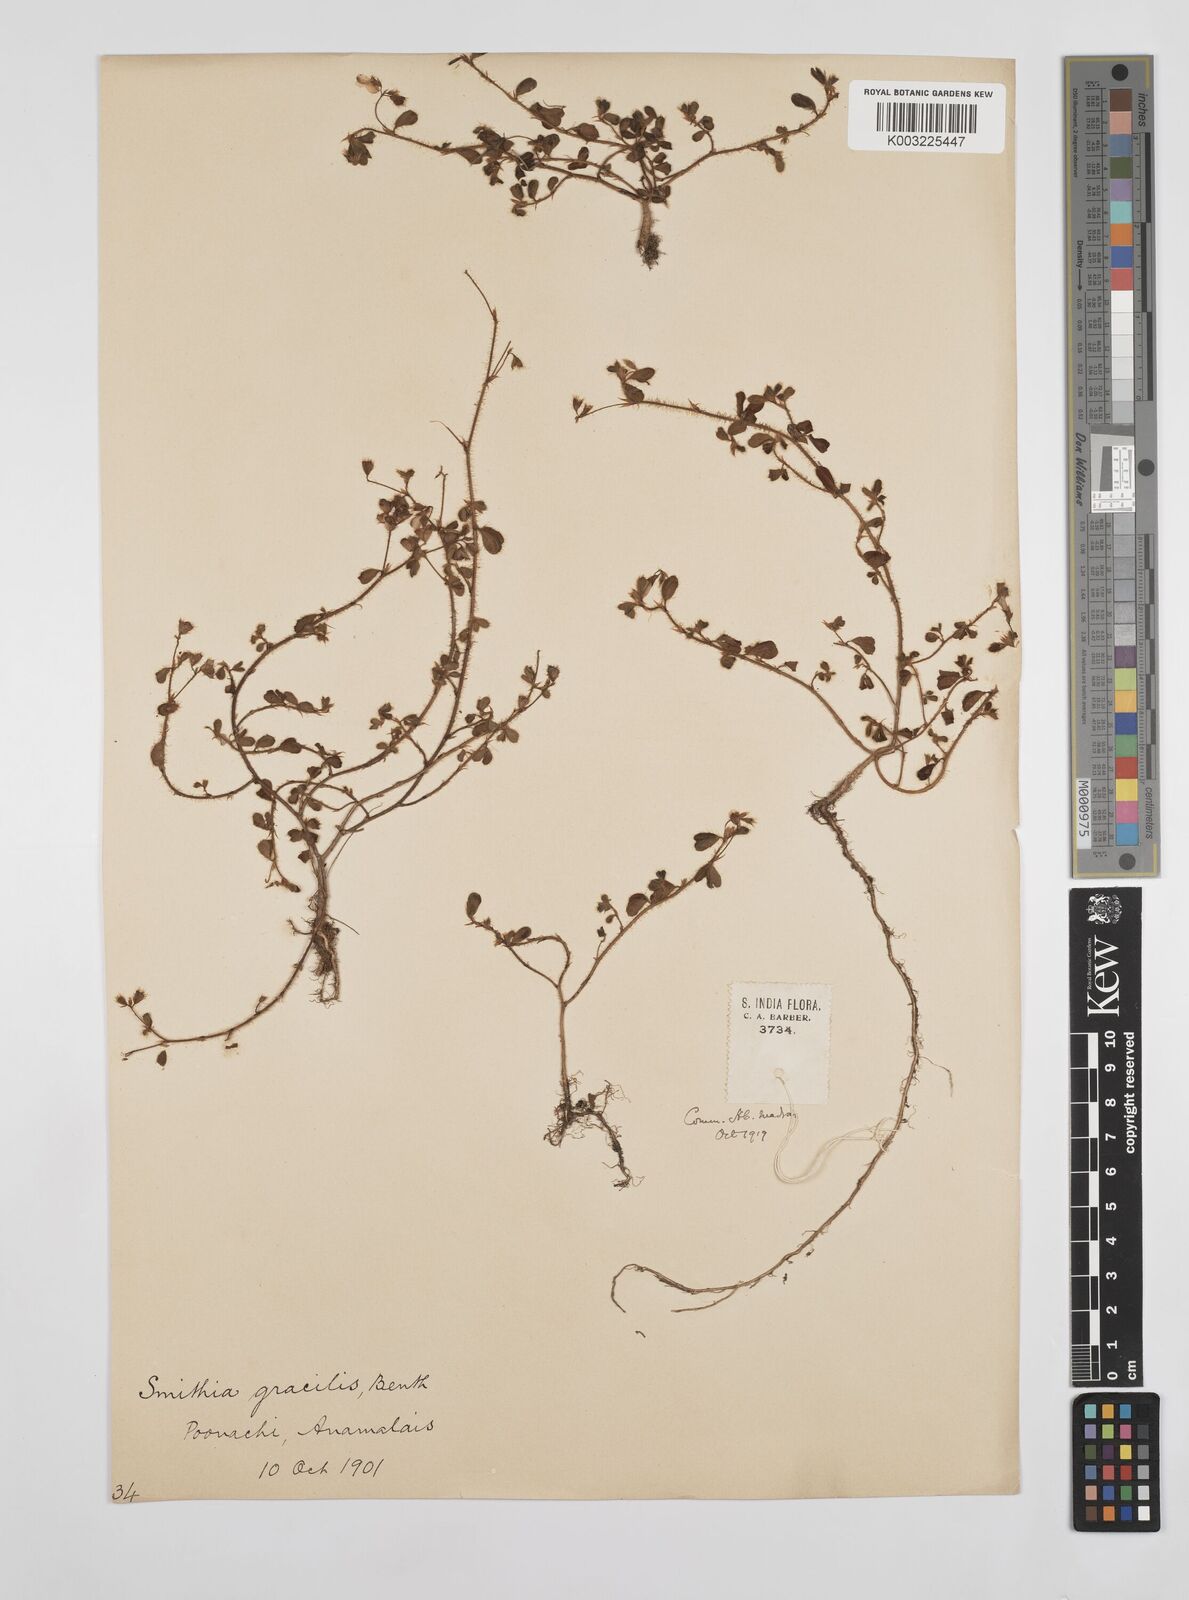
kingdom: Plantae
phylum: Tracheophyta
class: Magnoliopsida
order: Fabales
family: Fabaceae
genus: Smithia
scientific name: Smithia gracilis
